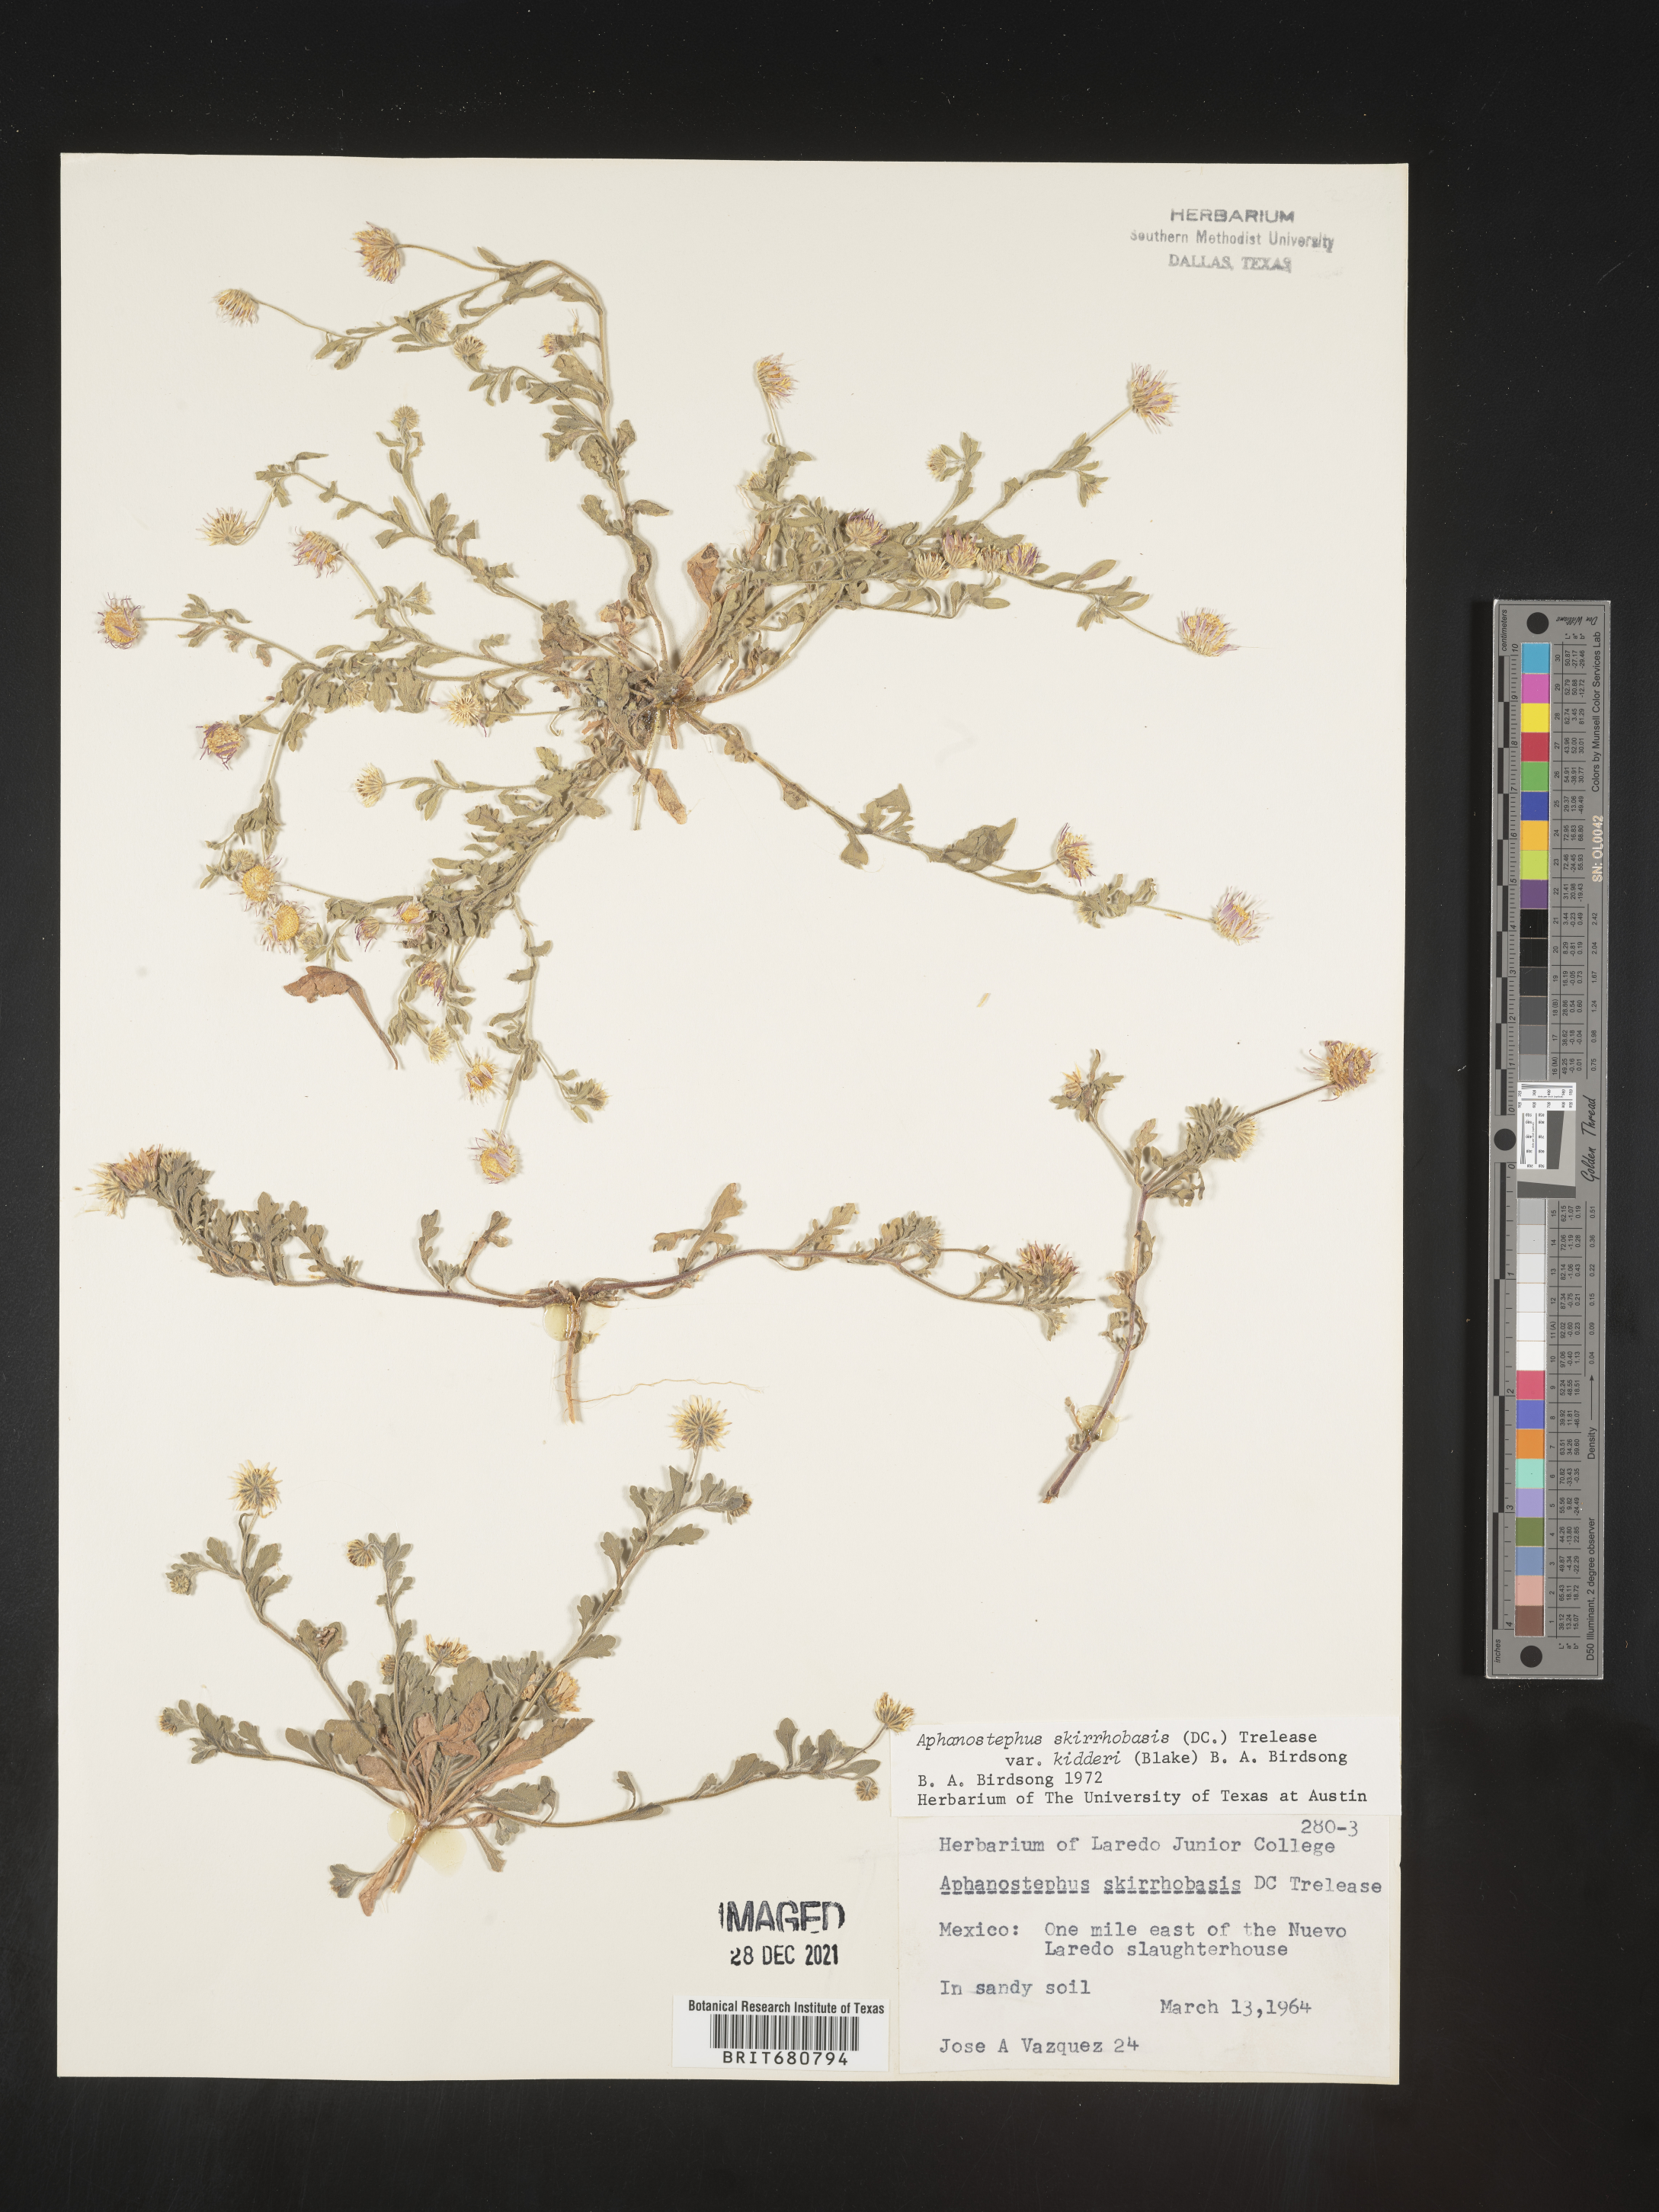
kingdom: Plantae
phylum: Tracheophyta
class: Magnoliopsida
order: Asterales
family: Asteraceae
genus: Aphanostephus
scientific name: Aphanostephus
